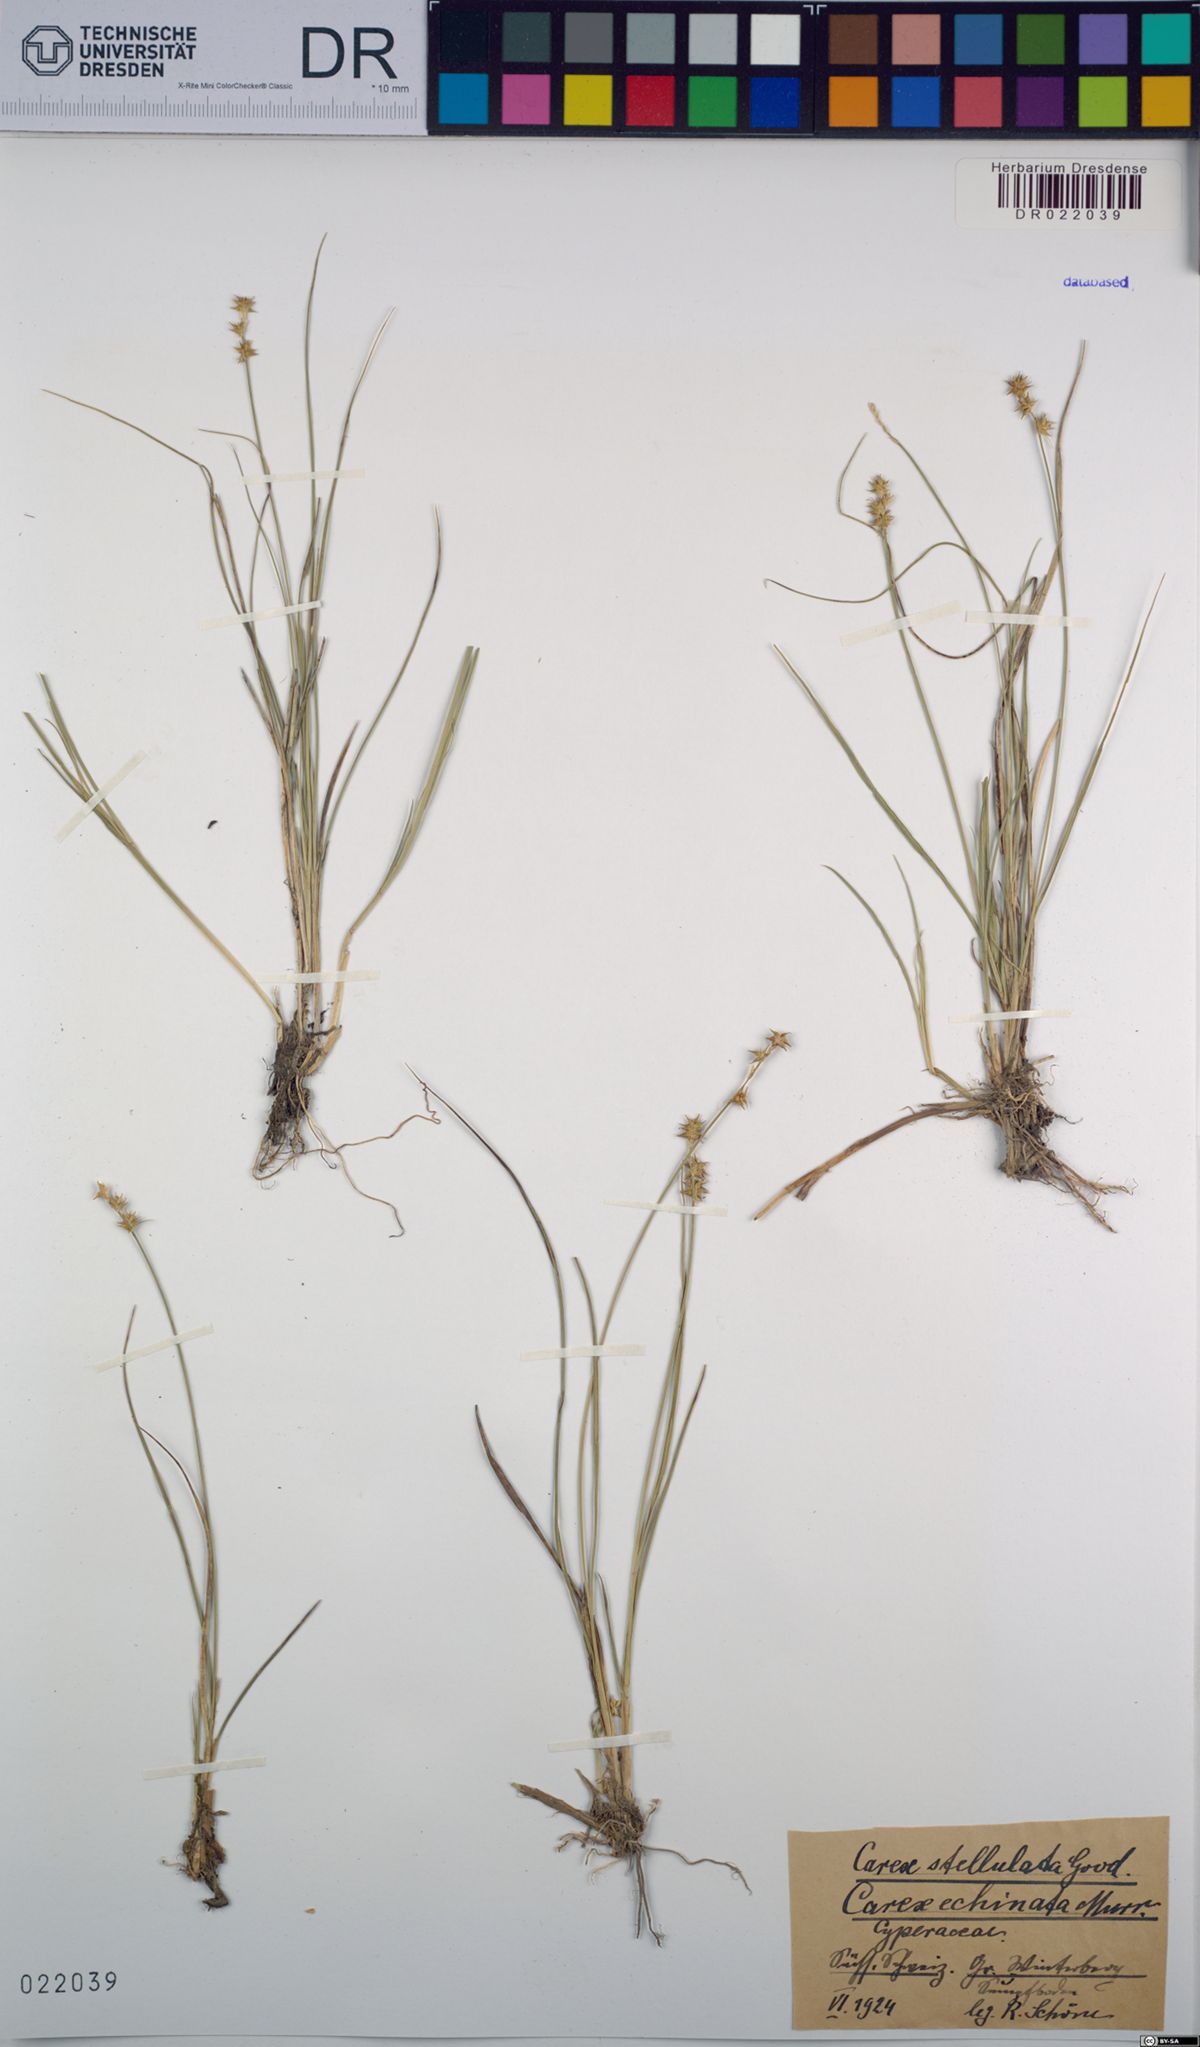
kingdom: Plantae
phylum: Tracheophyta
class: Liliopsida
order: Poales
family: Cyperaceae
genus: Carex
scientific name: Carex echinata
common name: Star sedge
